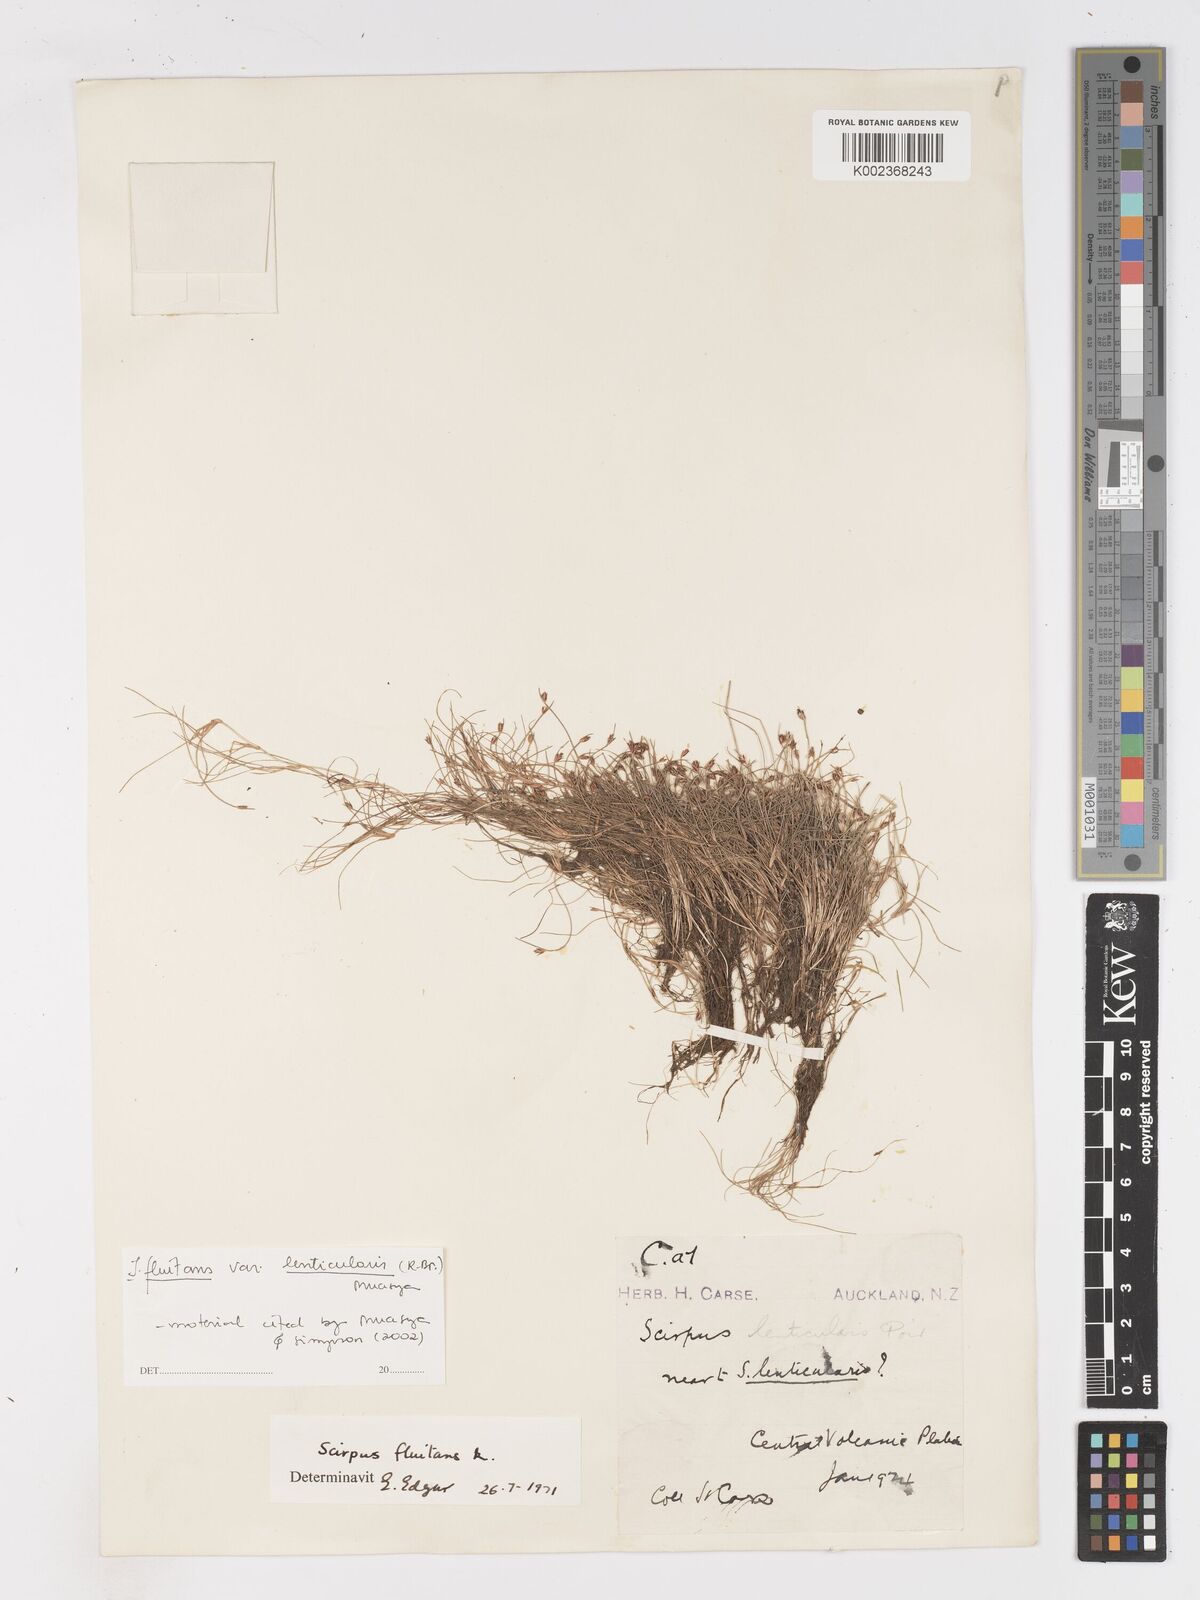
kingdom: Plantae
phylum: Tracheophyta
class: Liliopsida
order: Poales
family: Cyperaceae
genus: Isolepis
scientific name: Isolepis fluitans
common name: Floating club-rush
